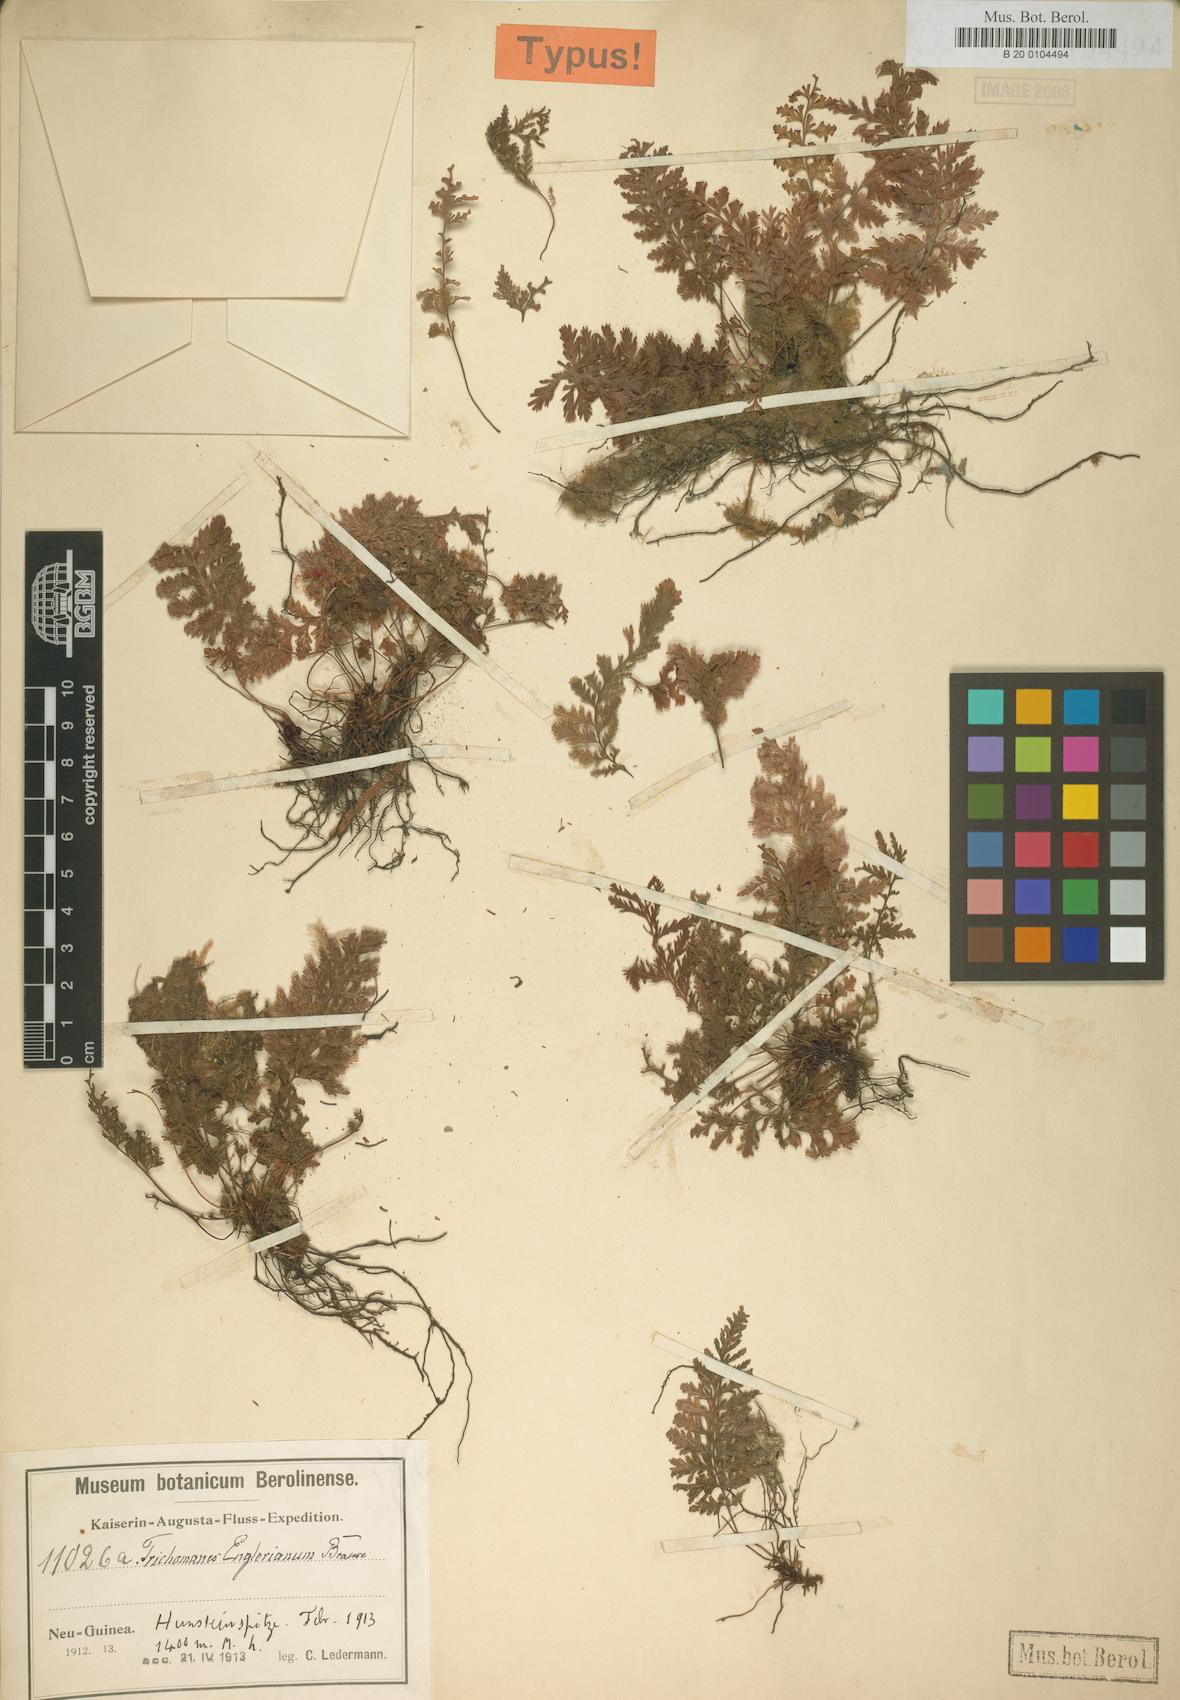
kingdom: Plantae
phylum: Tracheophyta
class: Polypodiopsida
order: Hymenophyllales
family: Hymenophyllaceae
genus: Abrodictyum
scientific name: Abrodictyum obscurum
